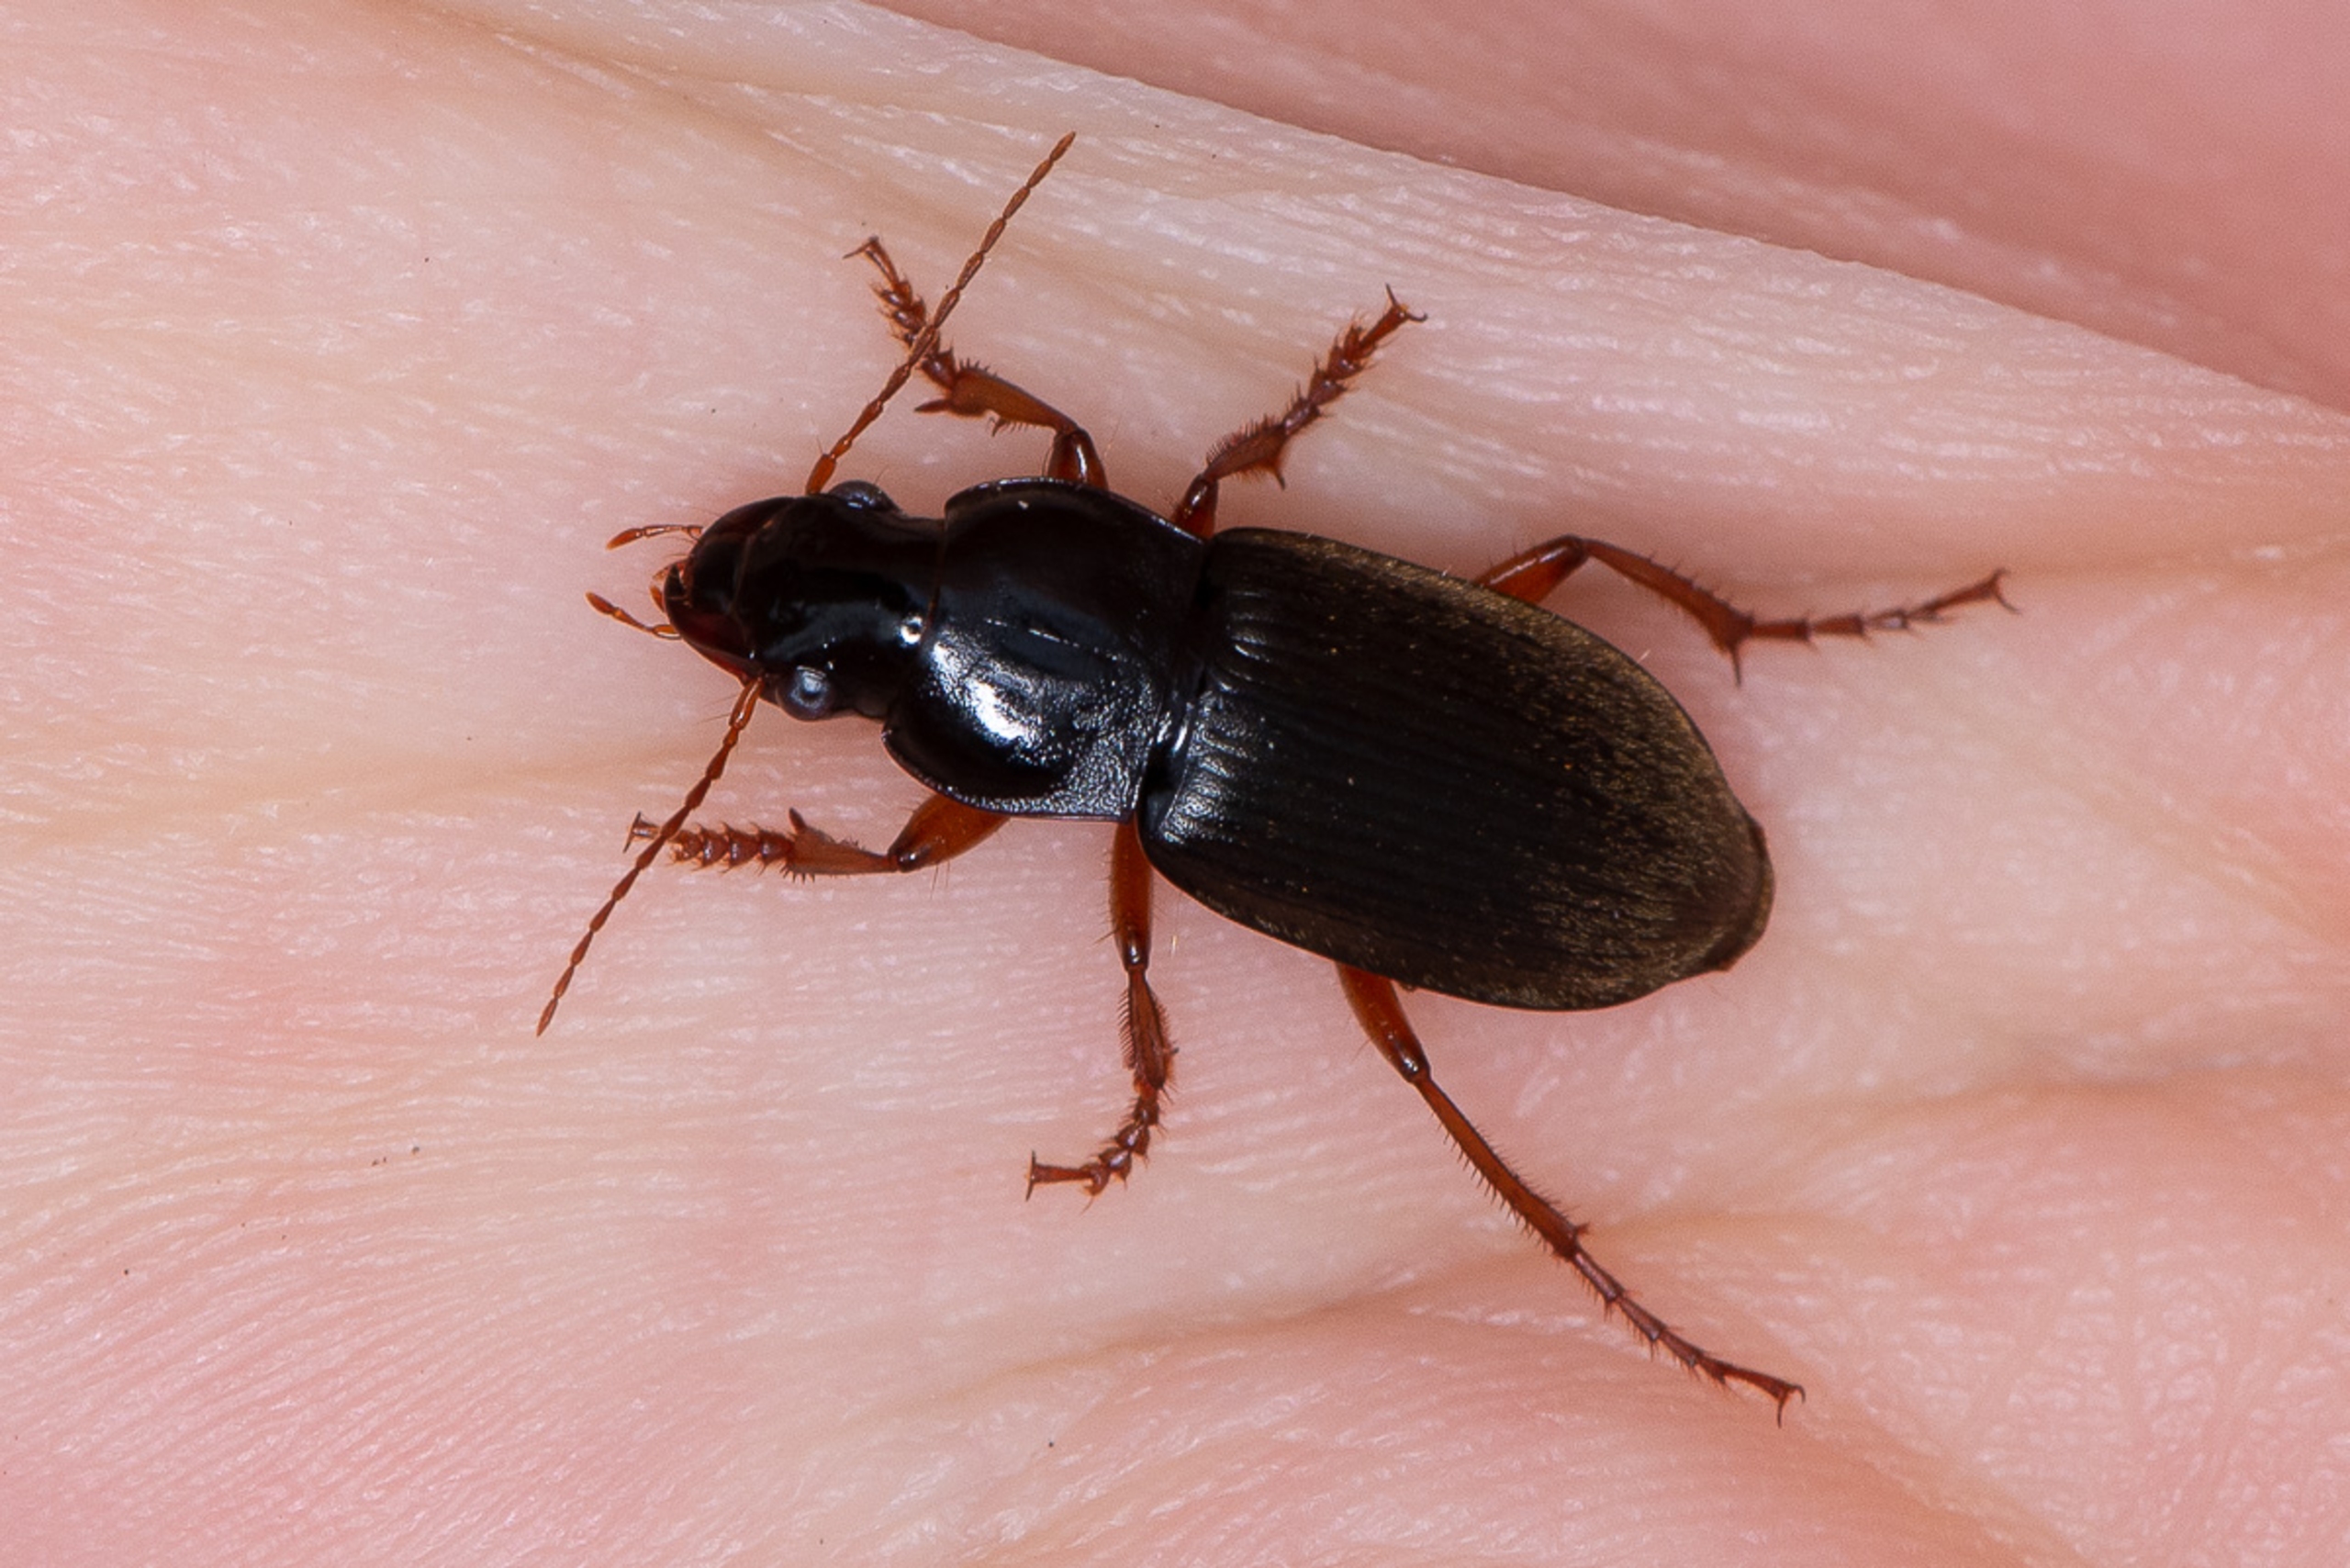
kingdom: Animalia
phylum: Arthropoda
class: Insecta
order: Coleoptera
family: Carabidae
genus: Harpalus
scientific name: Harpalus rufipes
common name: Håret markløber
